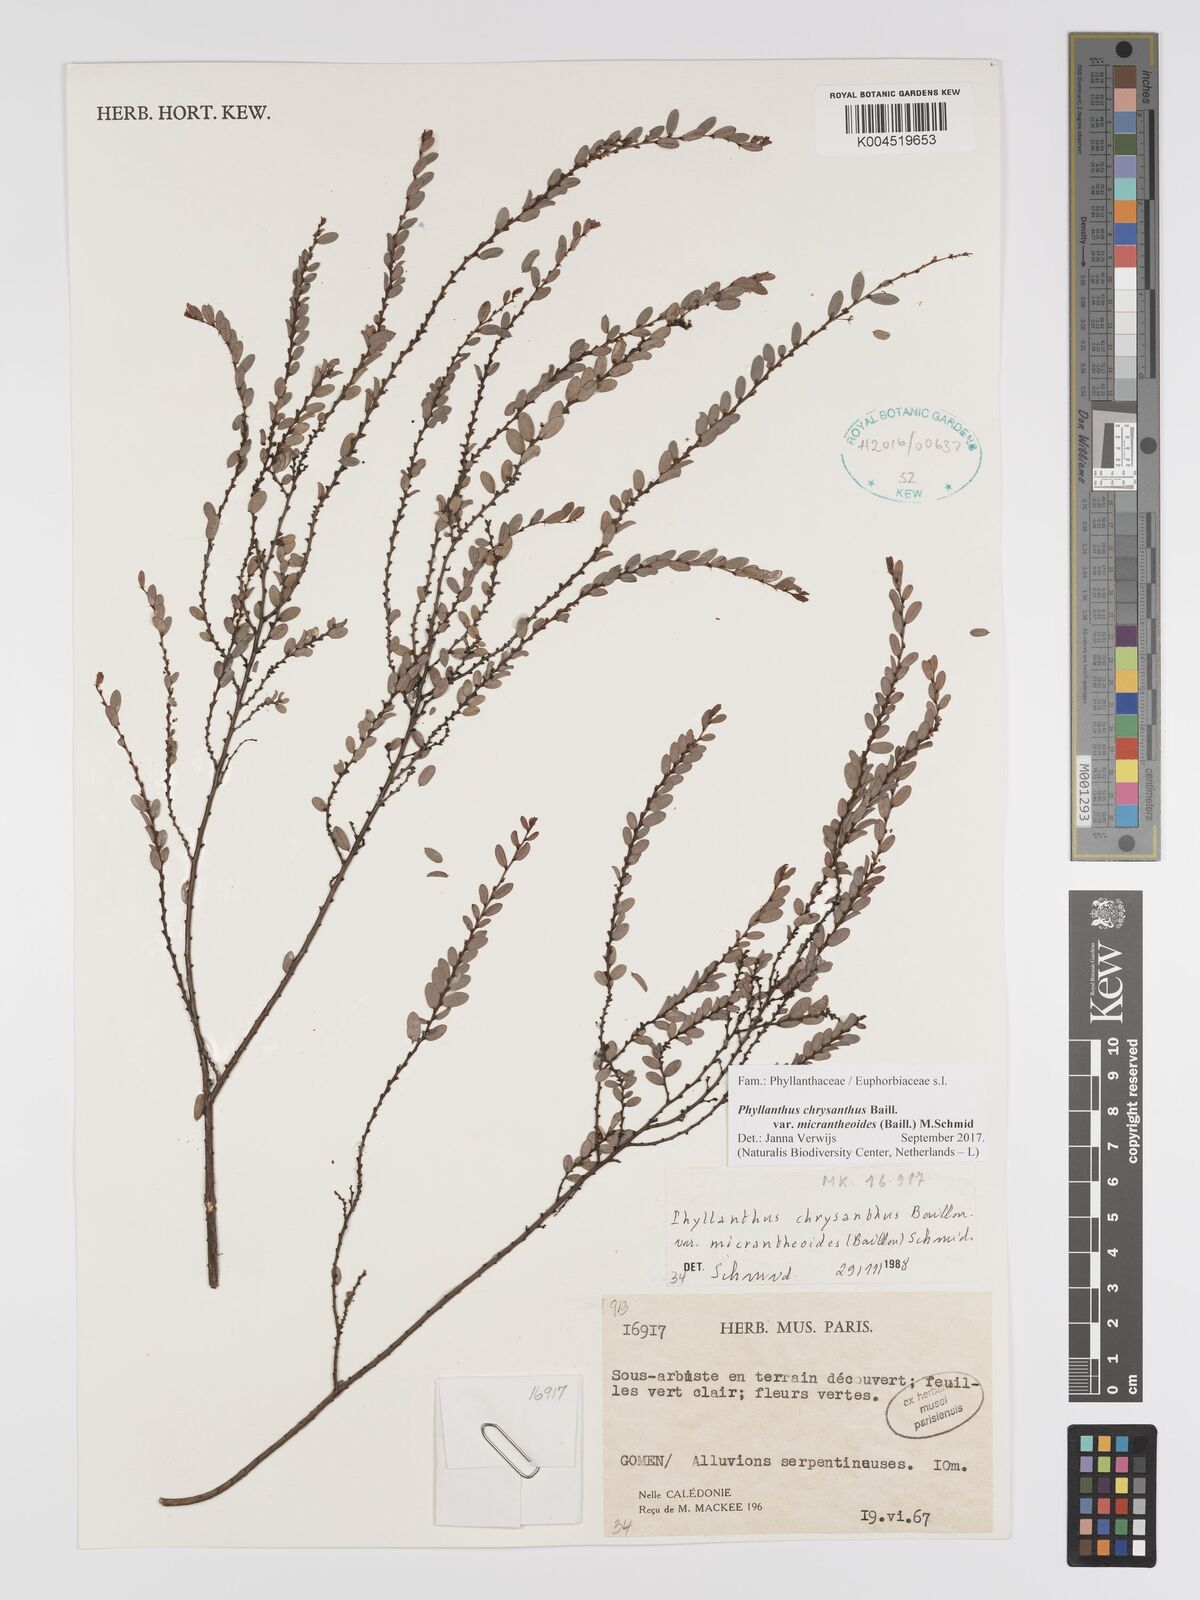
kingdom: Plantae
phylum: Tracheophyta
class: Magnoliopsida
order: Malpighiales
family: Phyllanthaceae
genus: Phyllanthus
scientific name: Phyllanthus chrysanthus
